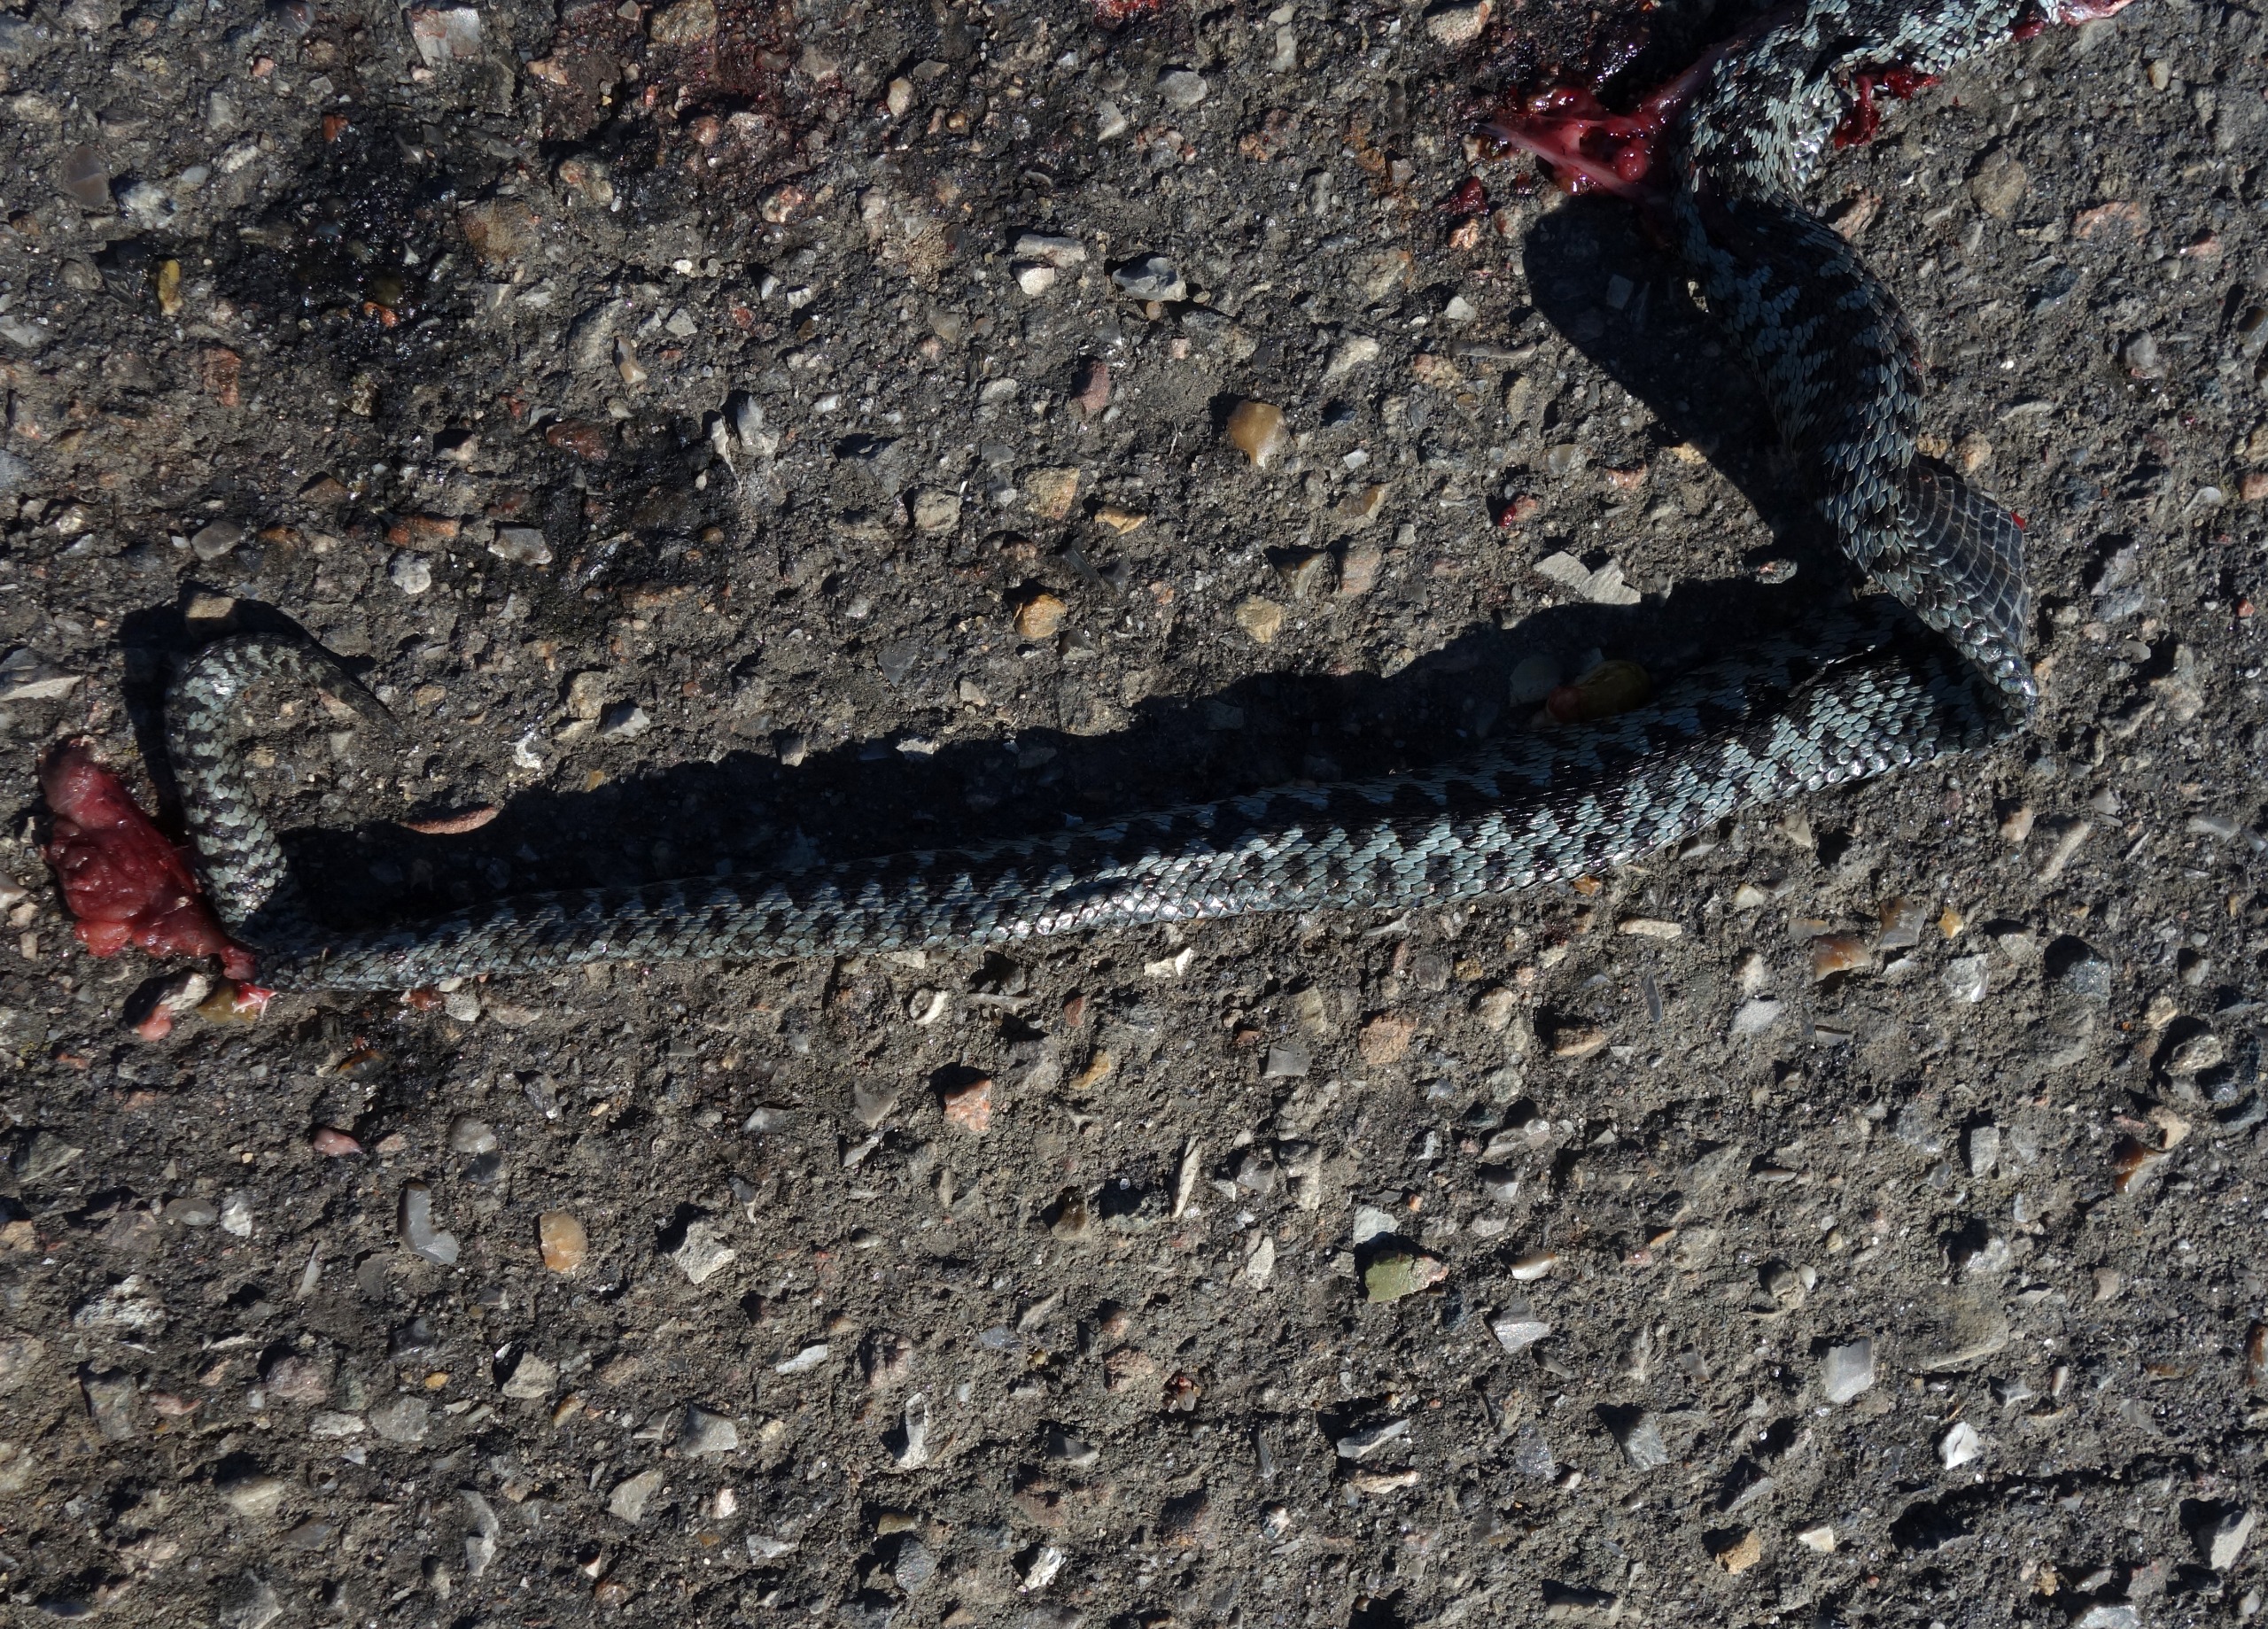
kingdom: Animalia
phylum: Chordata
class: Squamata
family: Viperidae
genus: Vipera
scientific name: Vipera berus
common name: Hugorm
